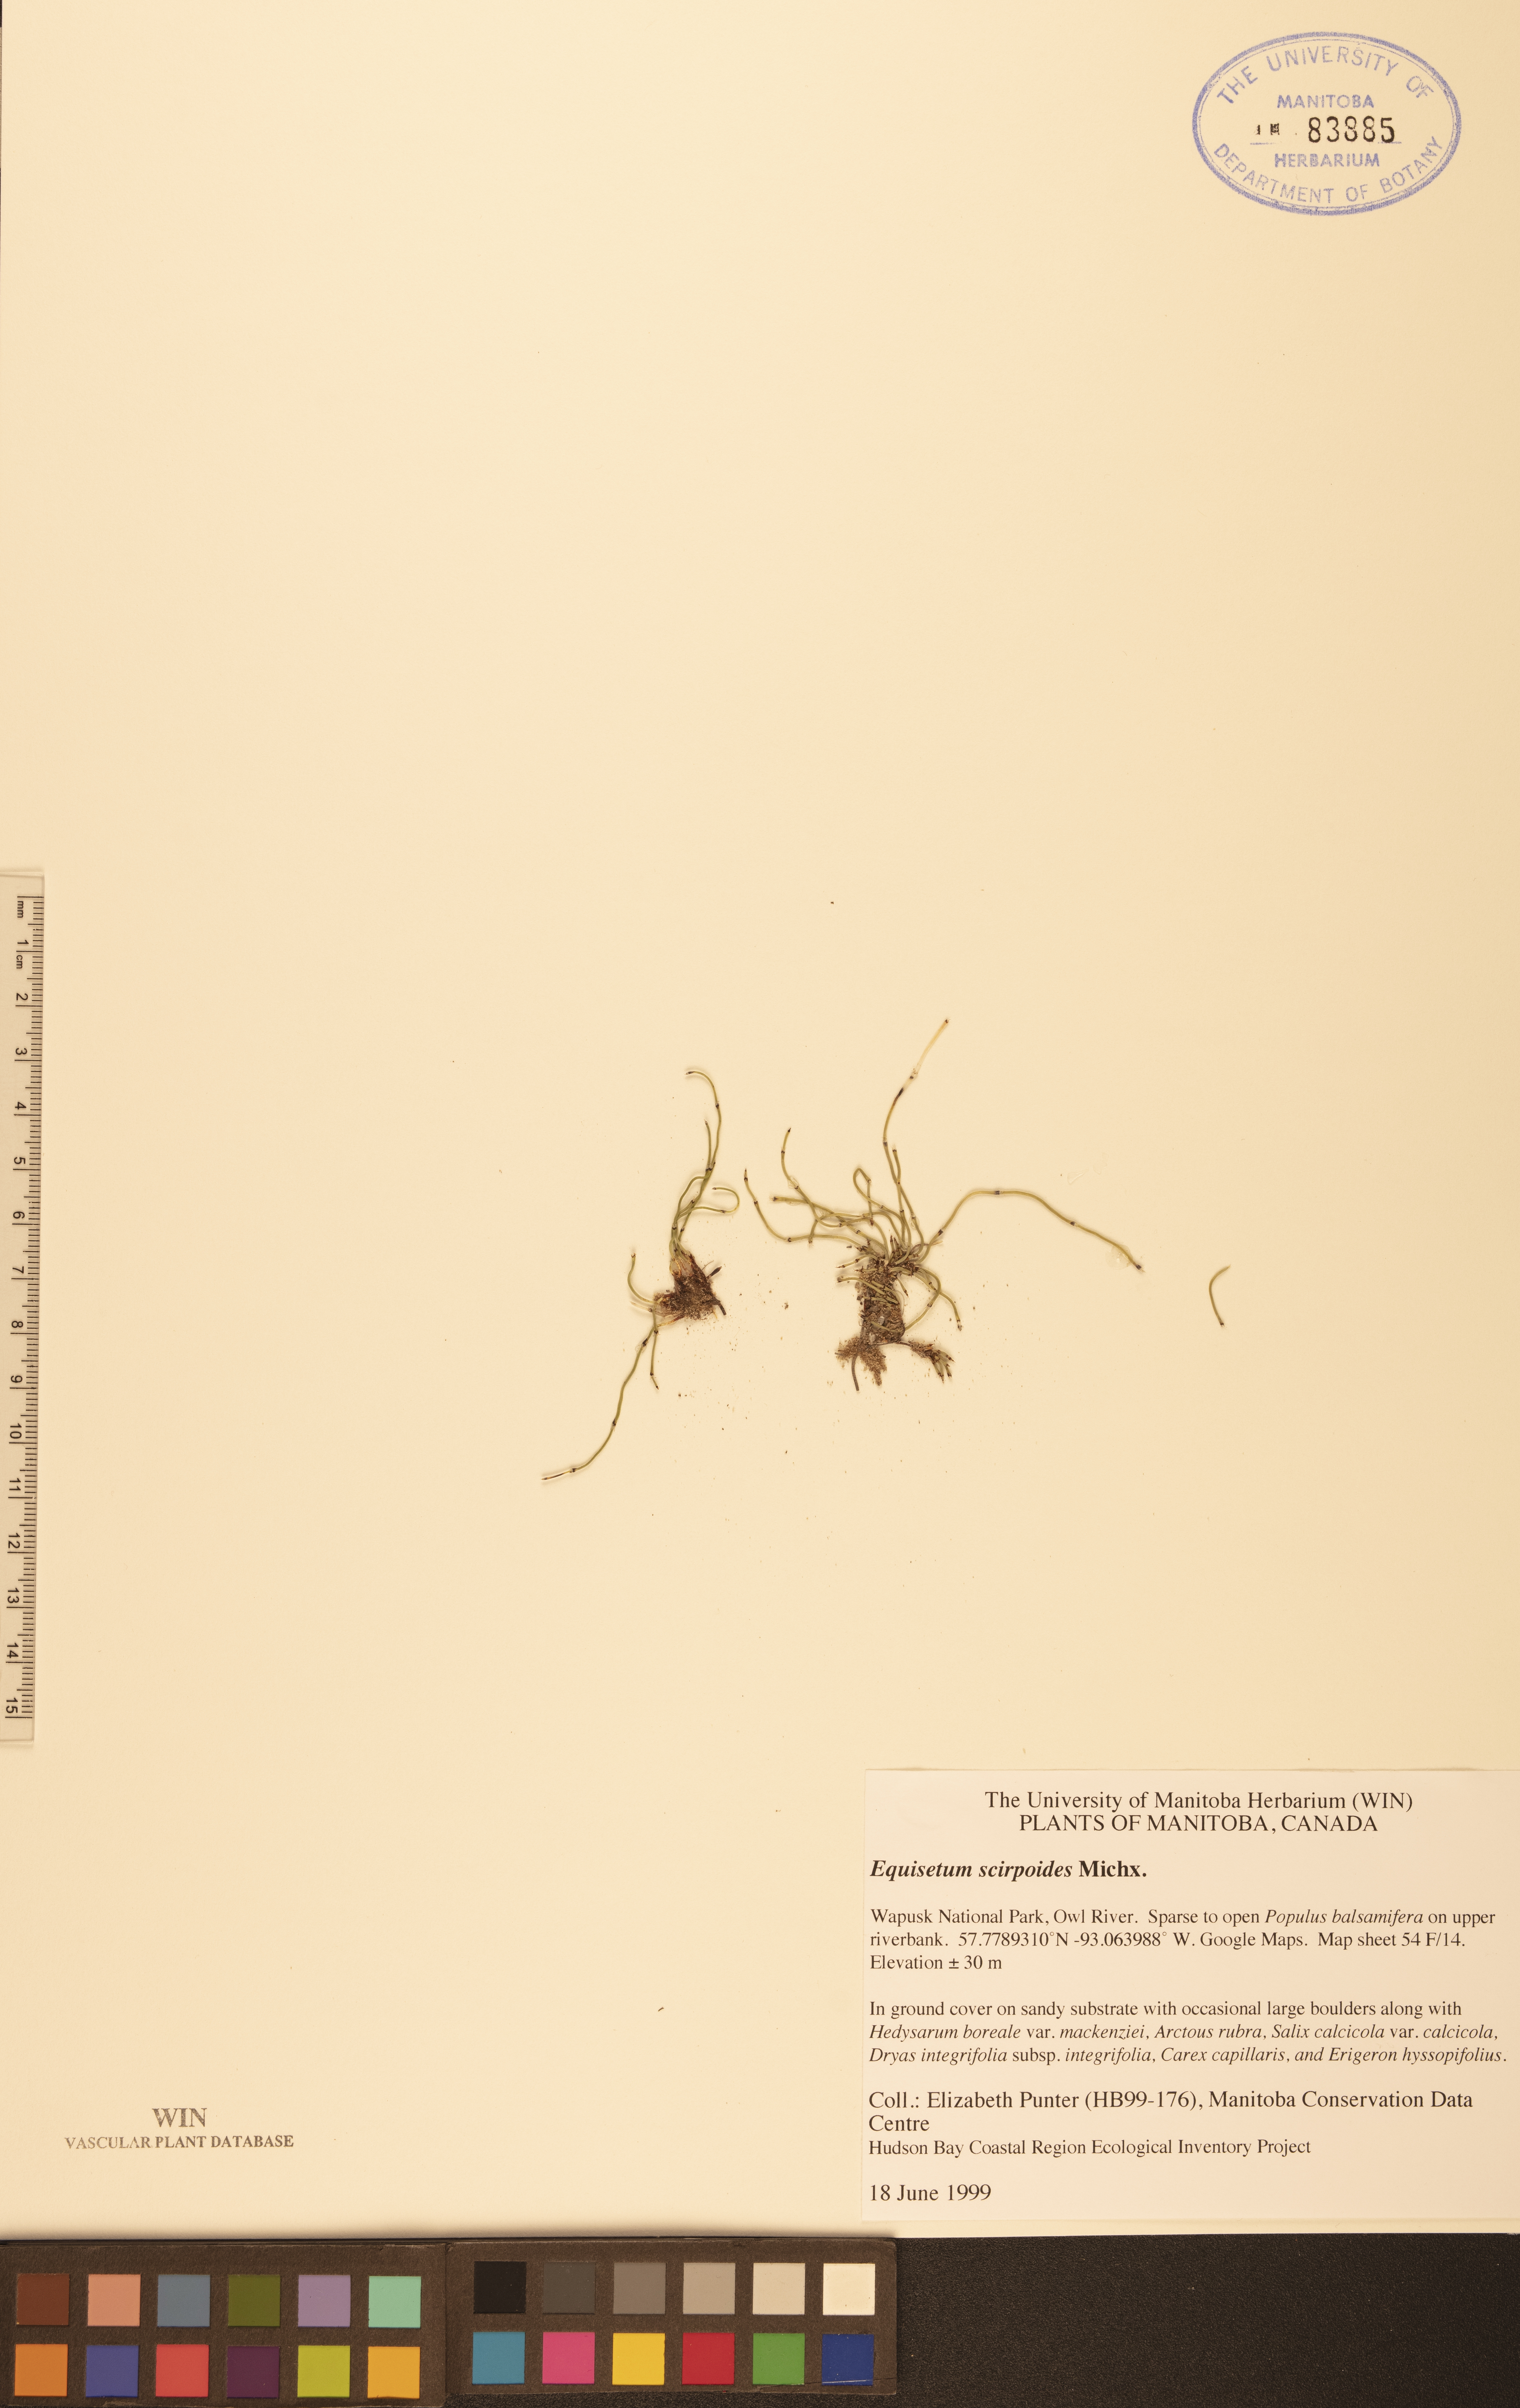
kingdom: Plantae
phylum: Tracheophyta
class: Polypodiopsida
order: Equisetales
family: Equisetaceae
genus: Equisetum
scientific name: Equisetum scirpoides
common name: Delicate horsetail
